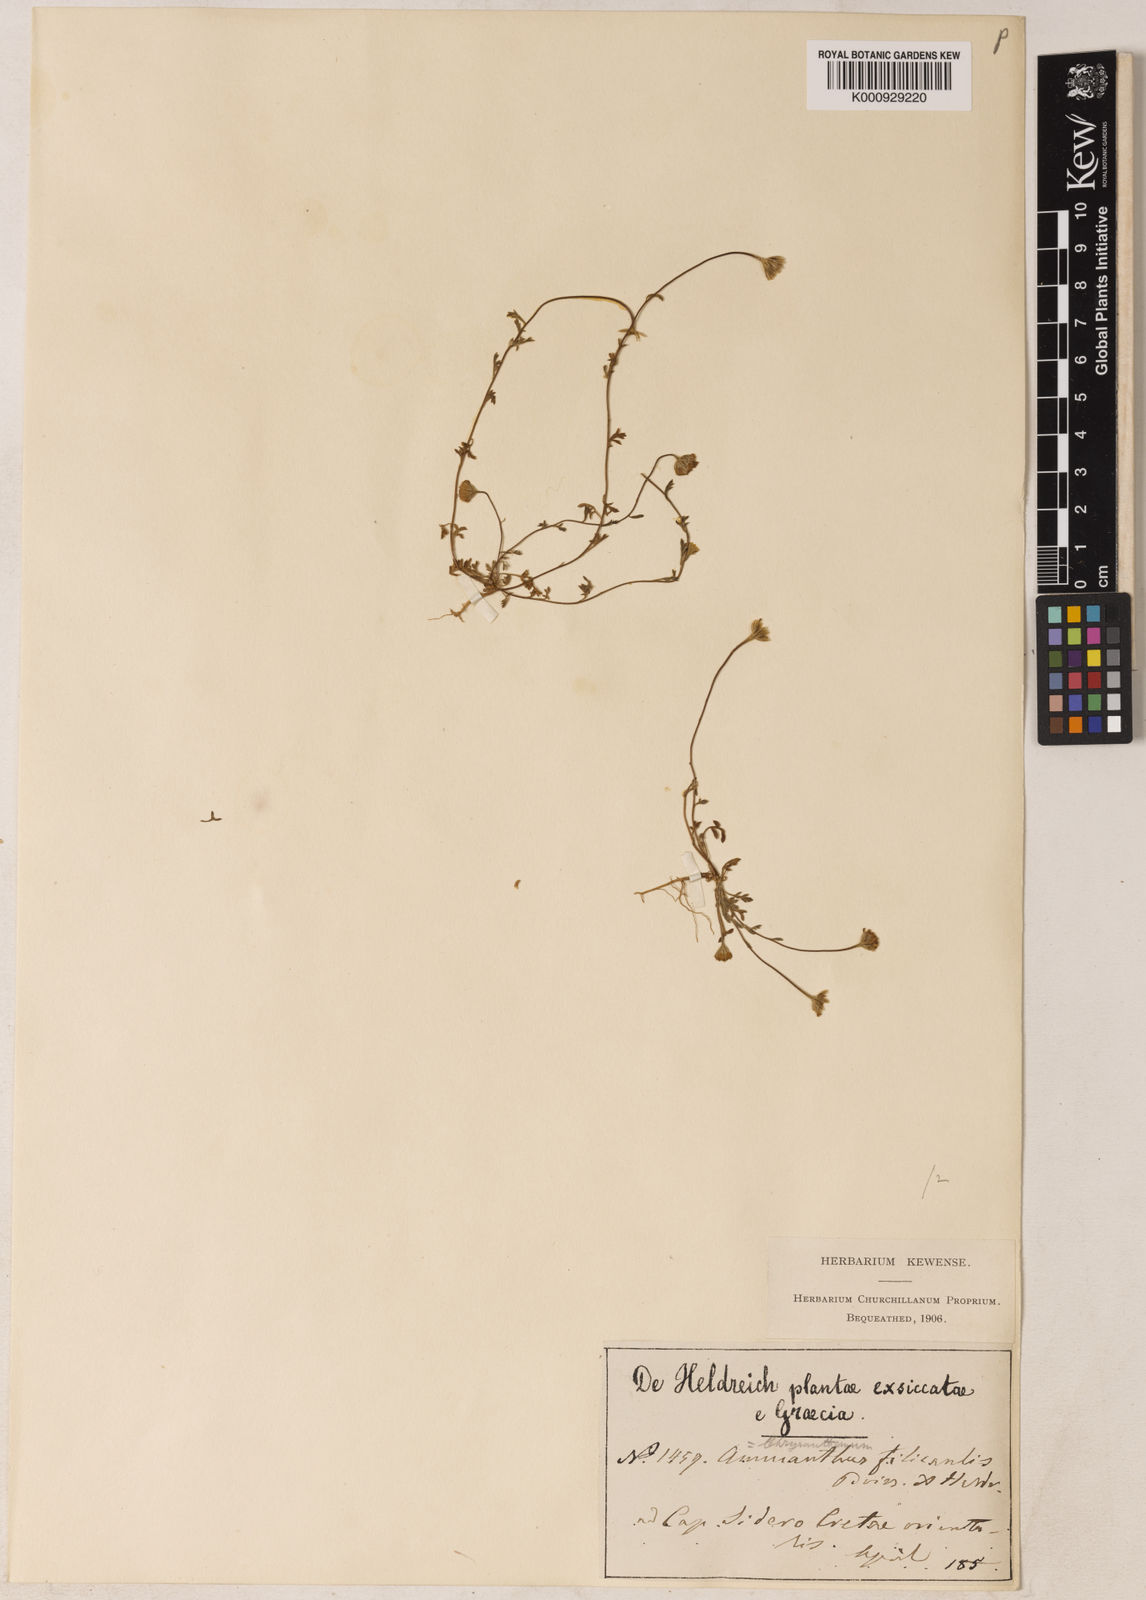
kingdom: Plantae
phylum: Tracheophyta
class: Magnoliopsida
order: Asterales
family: Asteraceae
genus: Anthemis
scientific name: Anthemis filicaulis
